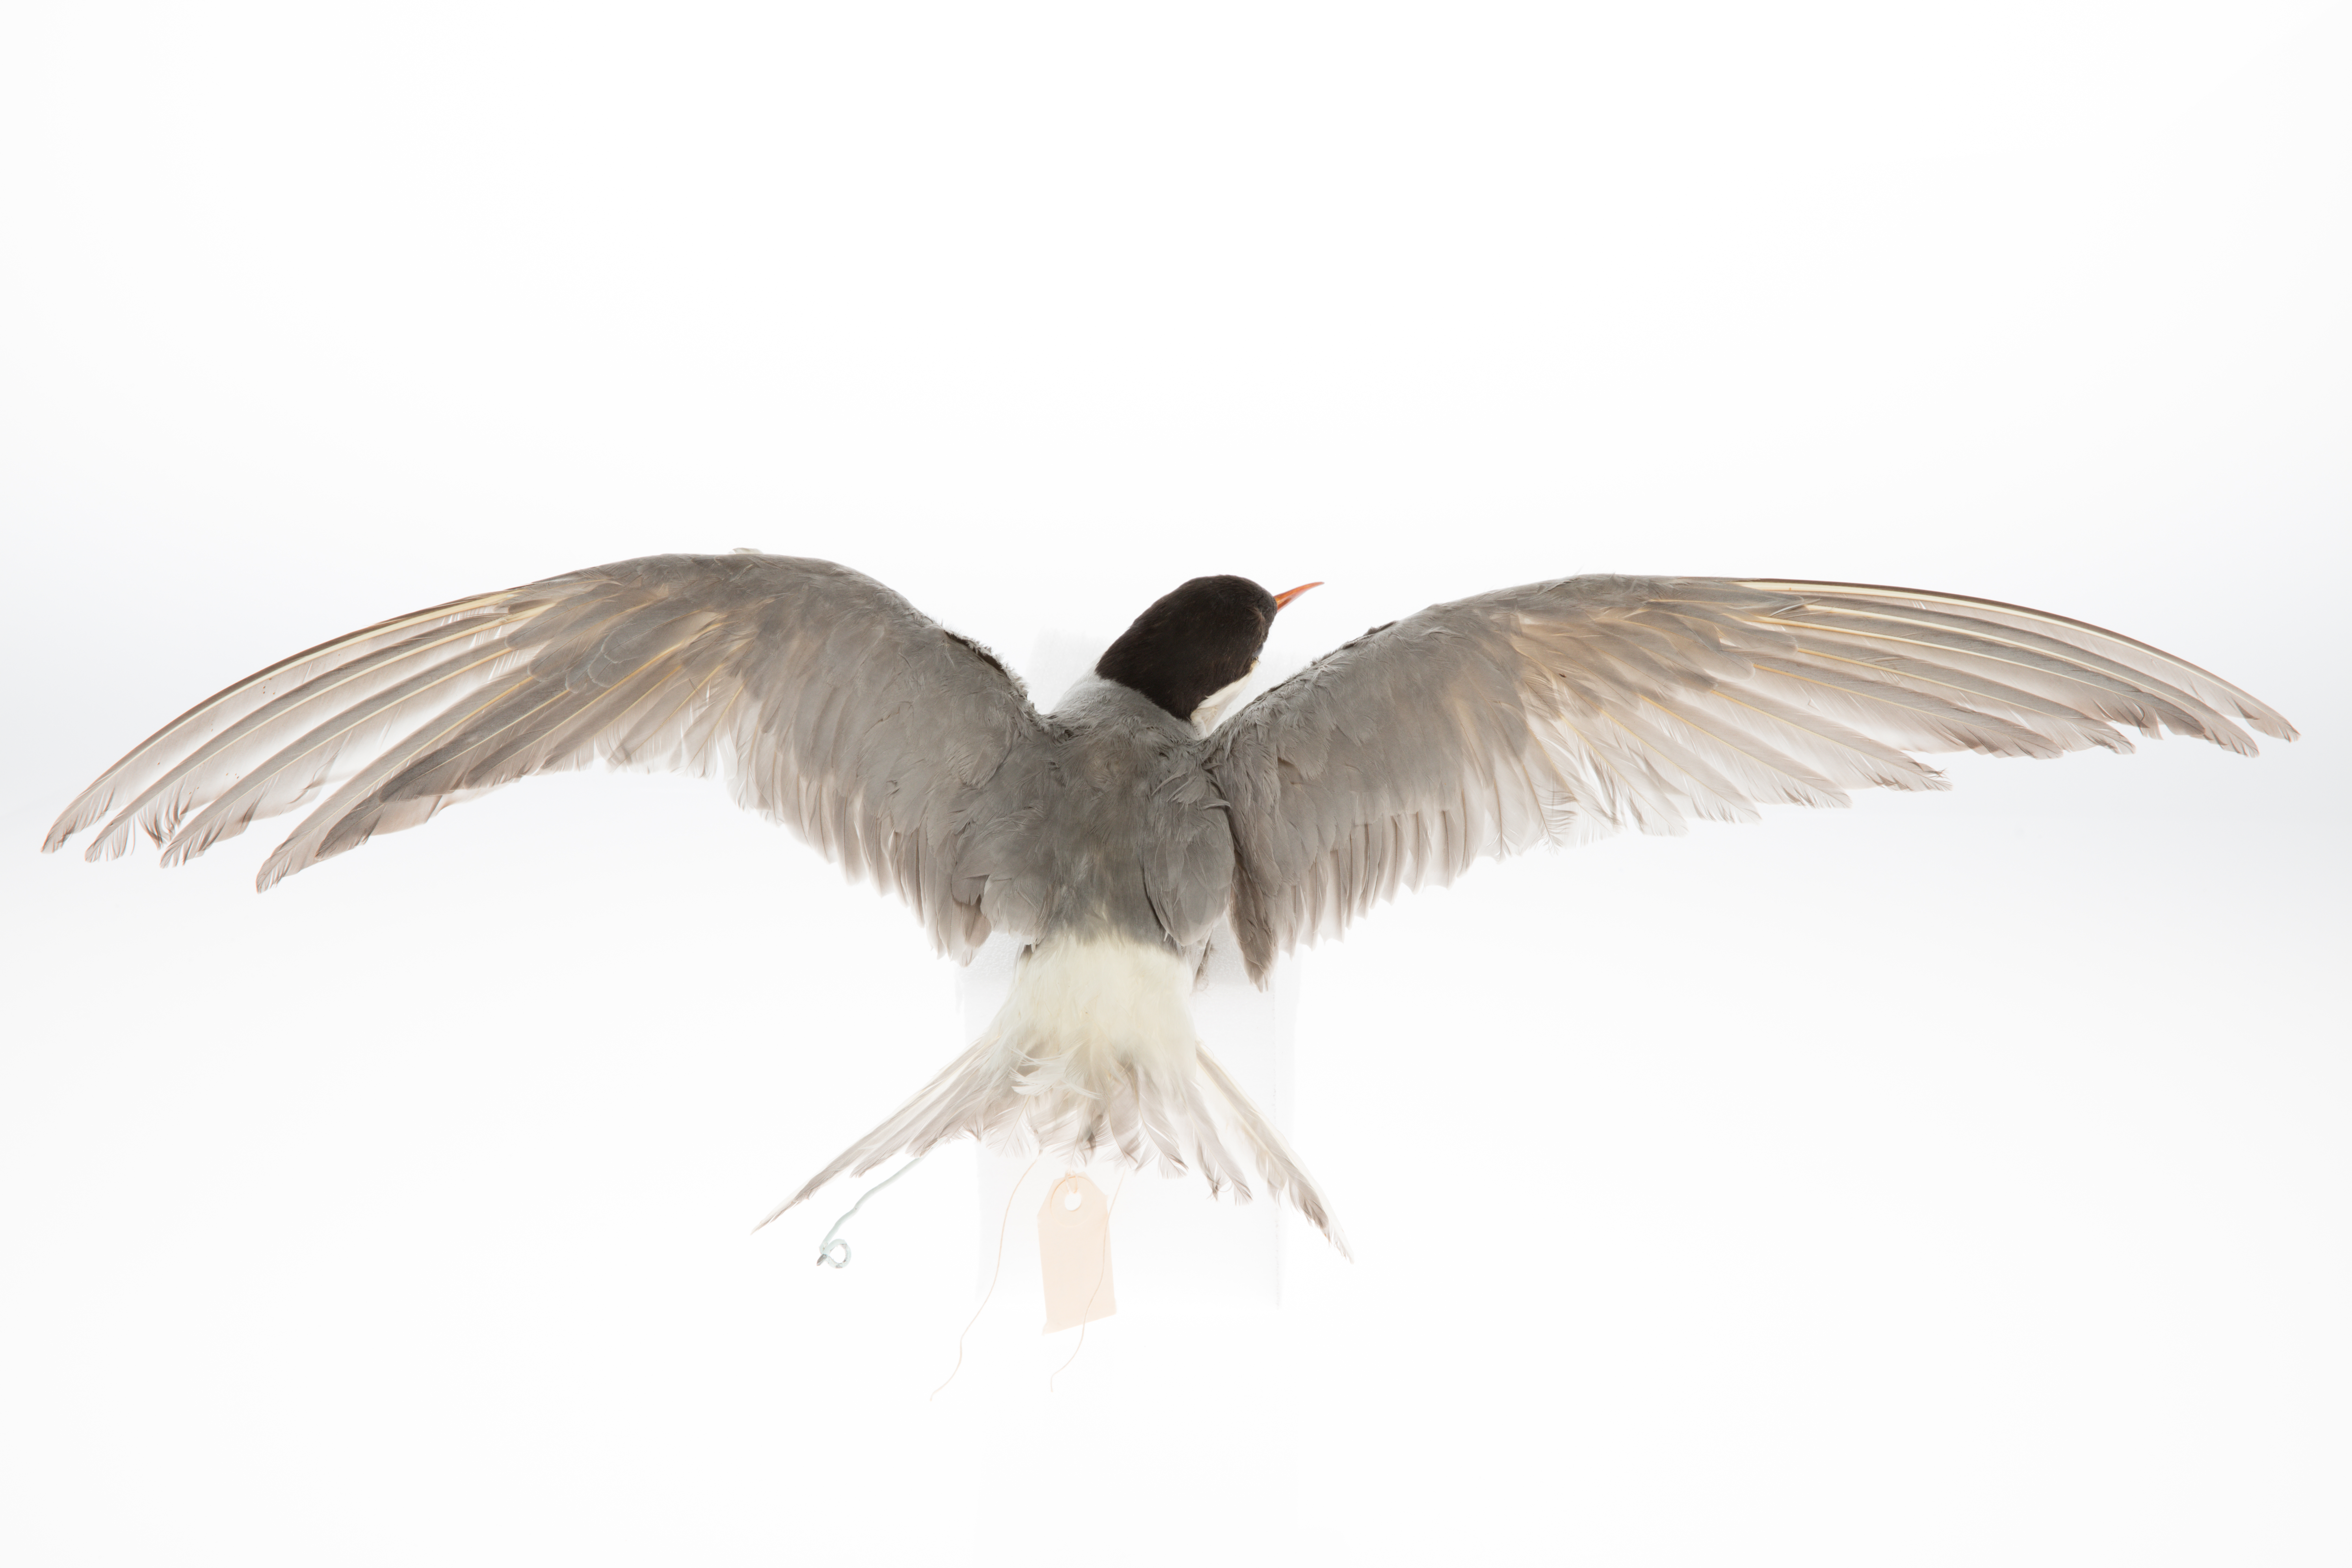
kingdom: Animalia
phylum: Chordata
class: Aves
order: Charadriiformes
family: Laridae
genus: Chlidonias
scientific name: Chlidonias albostriatus
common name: Black-fronted tern
